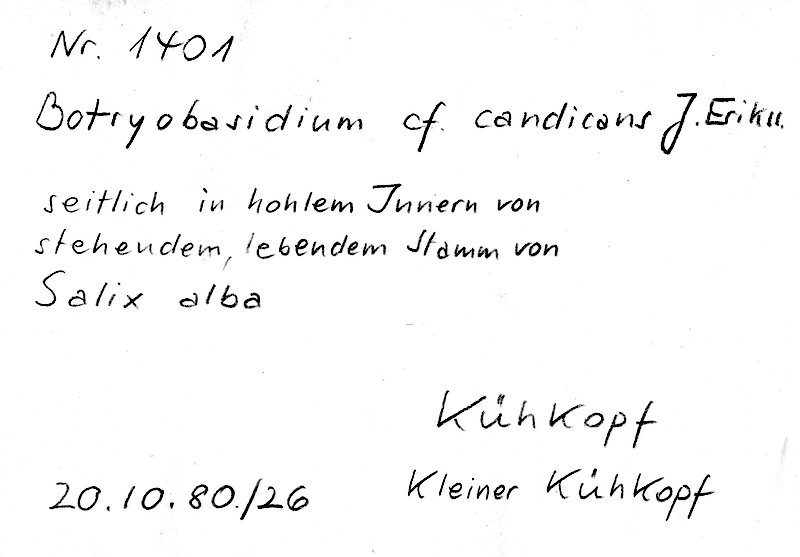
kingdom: Plantae
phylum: Tracheophyta
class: Magnoliopsida
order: Malpighiales
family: Salicaceae
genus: Salix
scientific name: Salix alba
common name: White willow
